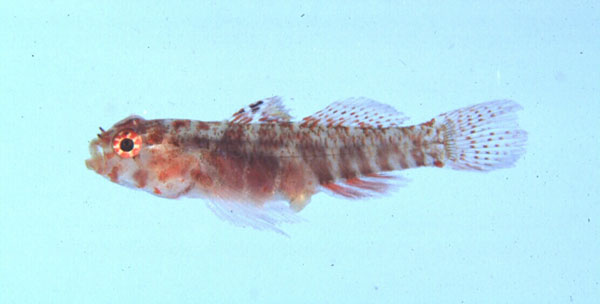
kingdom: Animalia
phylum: Chordata
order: Perciformes
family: Gobiidae
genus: Sueviota
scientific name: Sueviota lachneri
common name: Ernie's sueviota
